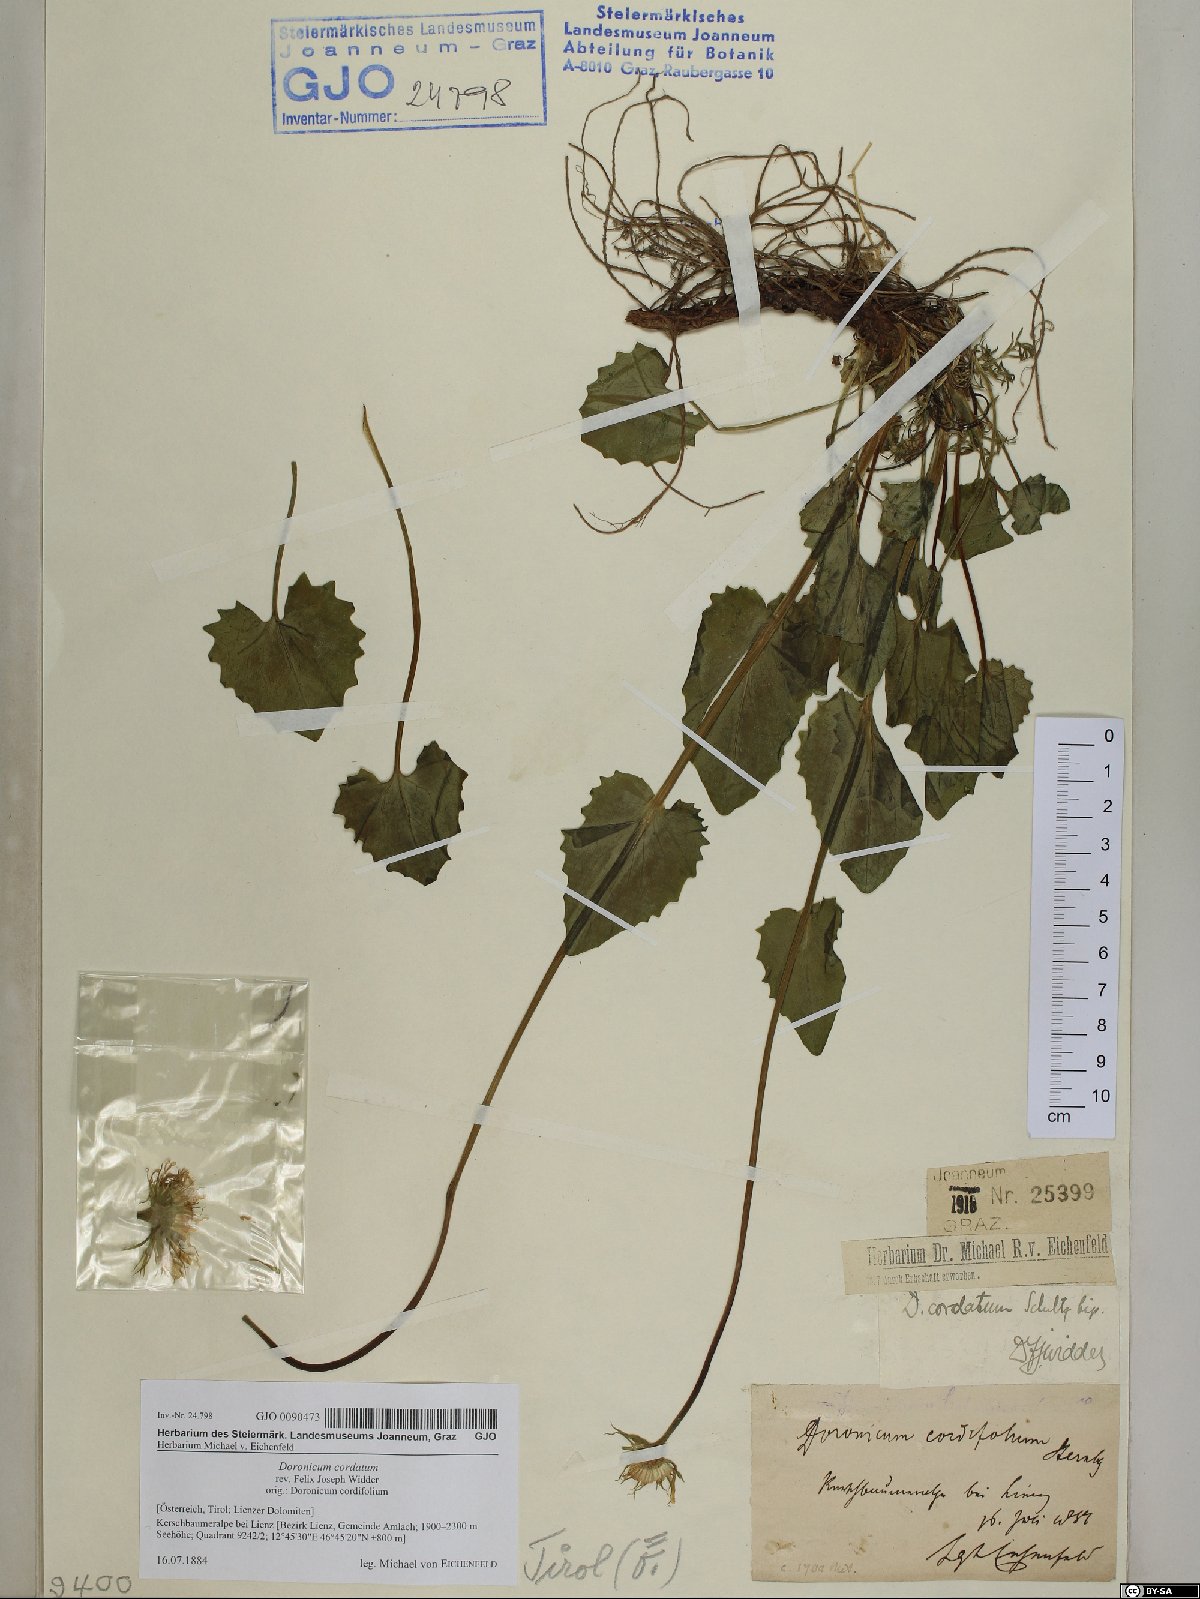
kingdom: Plantae
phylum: Tracheophyta
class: Magnoliopsida
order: Asterales
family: Asteraceae
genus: Doronicum
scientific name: Doronicum columnae
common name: Eastern leopard's-bane
